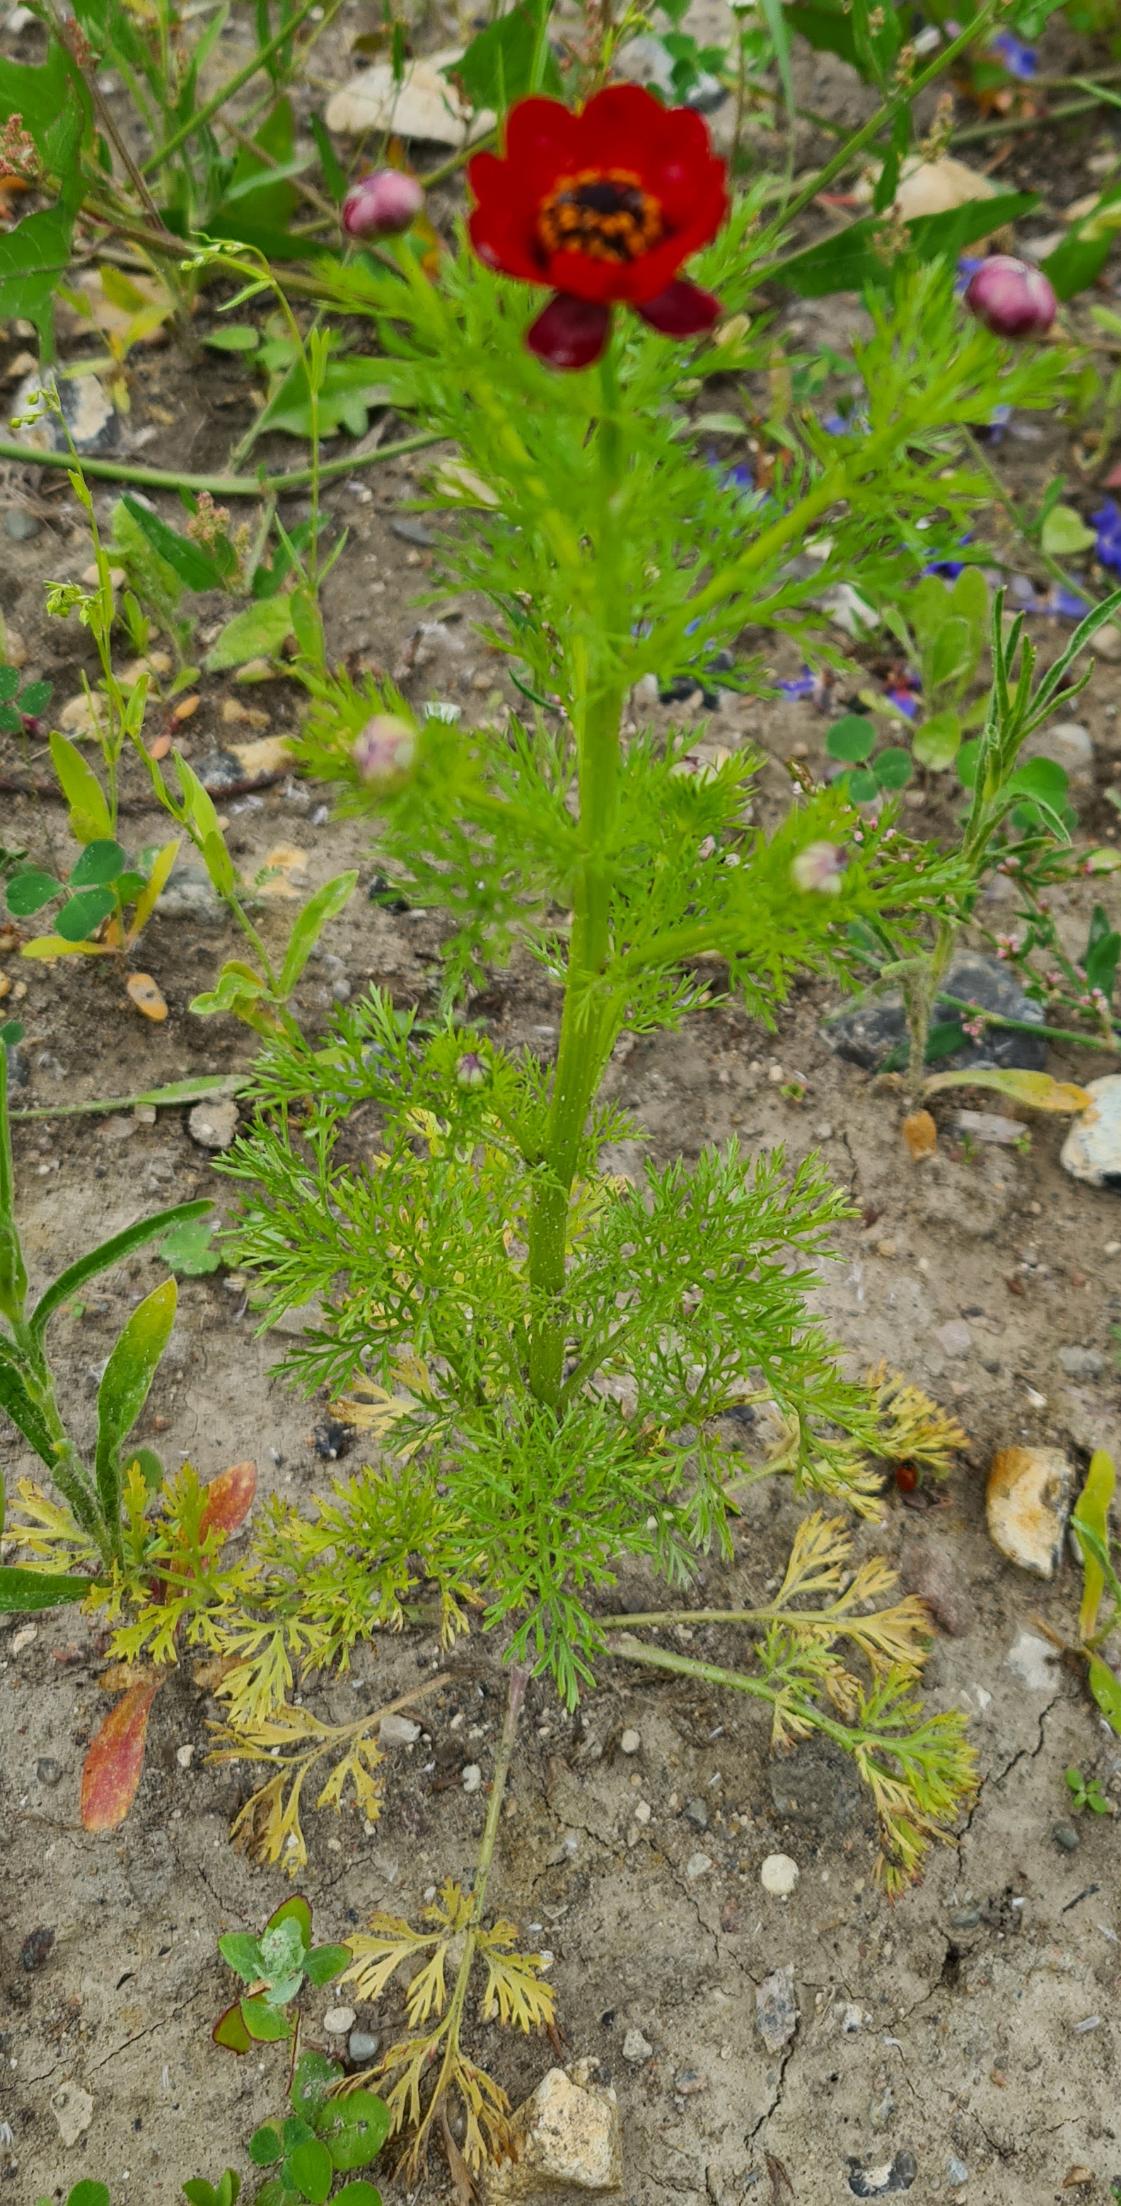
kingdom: Plantae
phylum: Tracheophyta
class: Magnoliopsida
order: Ranunculales
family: Ranunculaceae
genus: Adonis
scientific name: Adonis annua
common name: Høst-adonis
